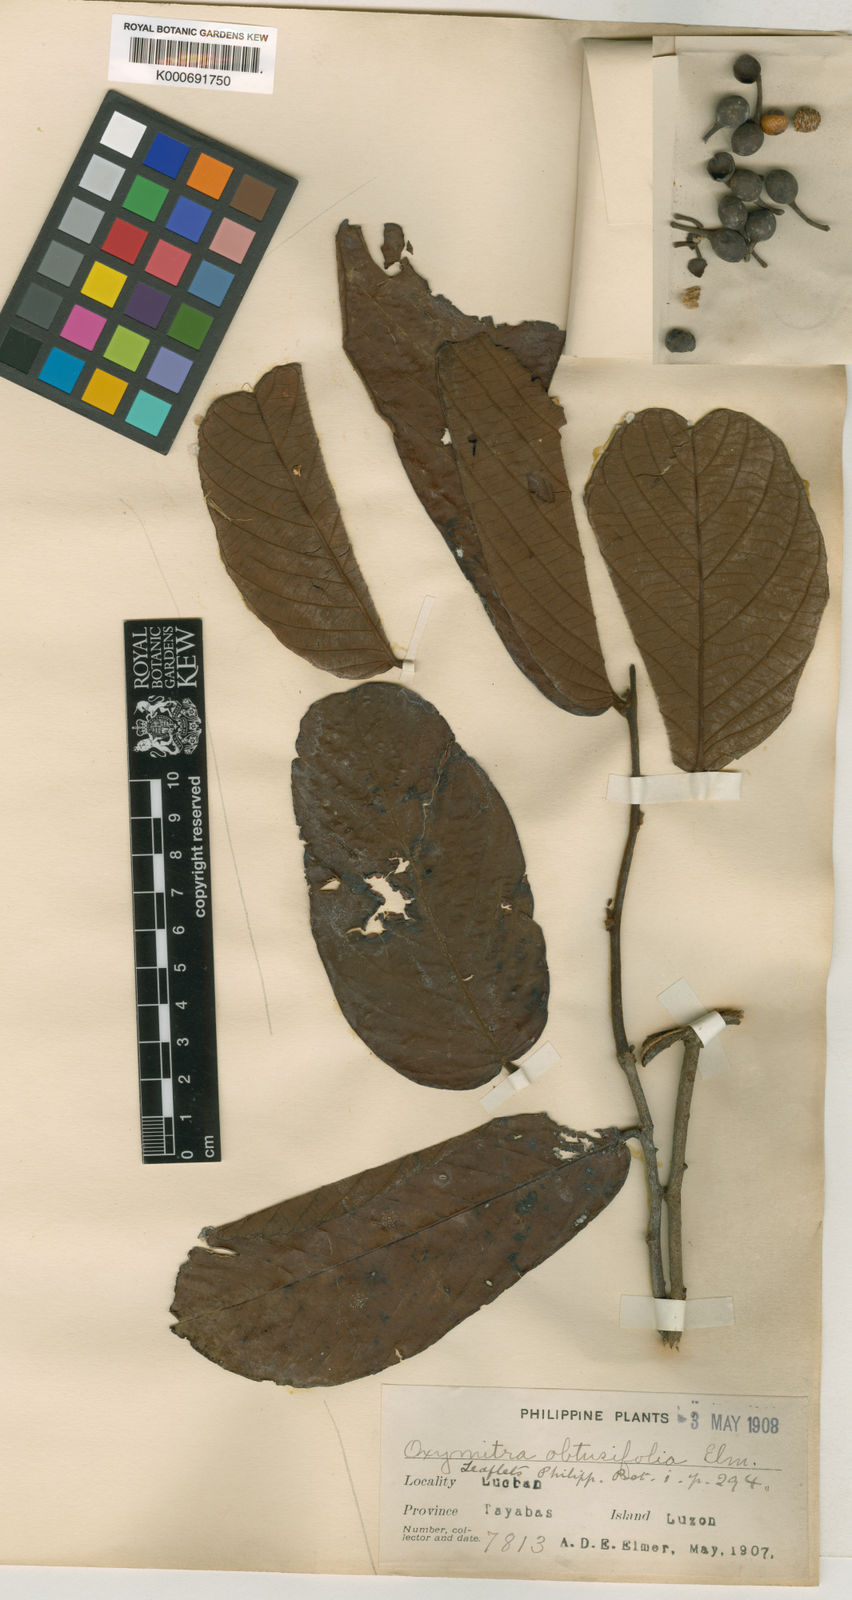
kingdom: Plantae
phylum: Tracheophyta
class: Magnoliopsida
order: Magnoliales
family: Annonaceae
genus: Friesodielsia
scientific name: Friesodielsia obtusifolia
